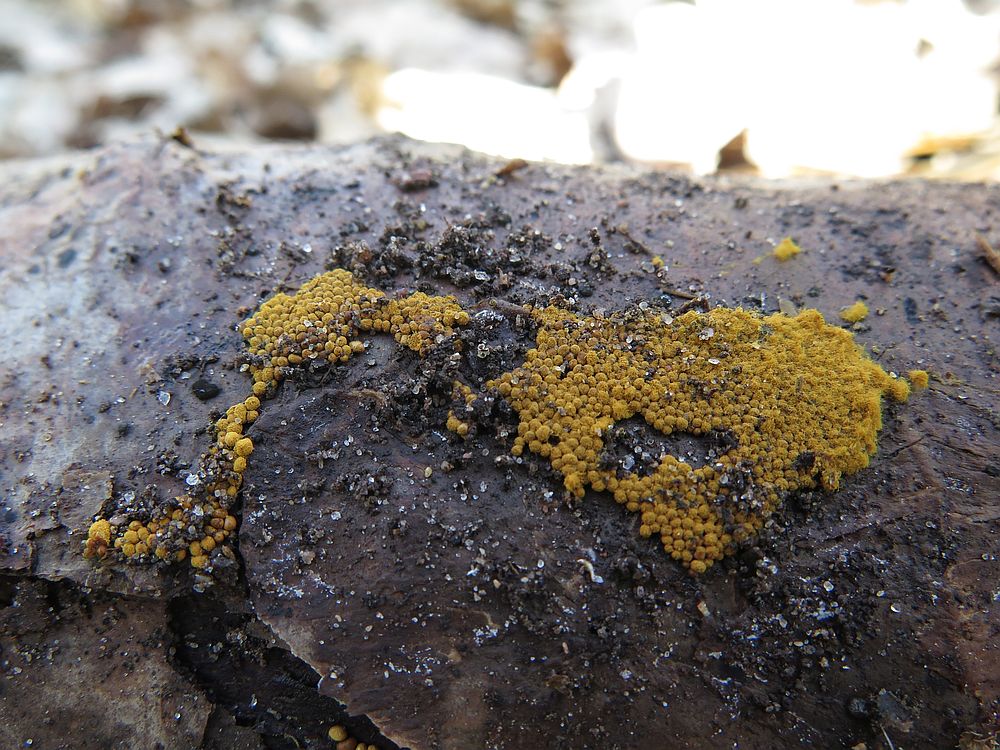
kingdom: Protozoa
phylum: Mycetozoa
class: Myxomycetes
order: Trichiales
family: Trichiaceae
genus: Trichia
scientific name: Trichia varia
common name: foranderlig hårbold
